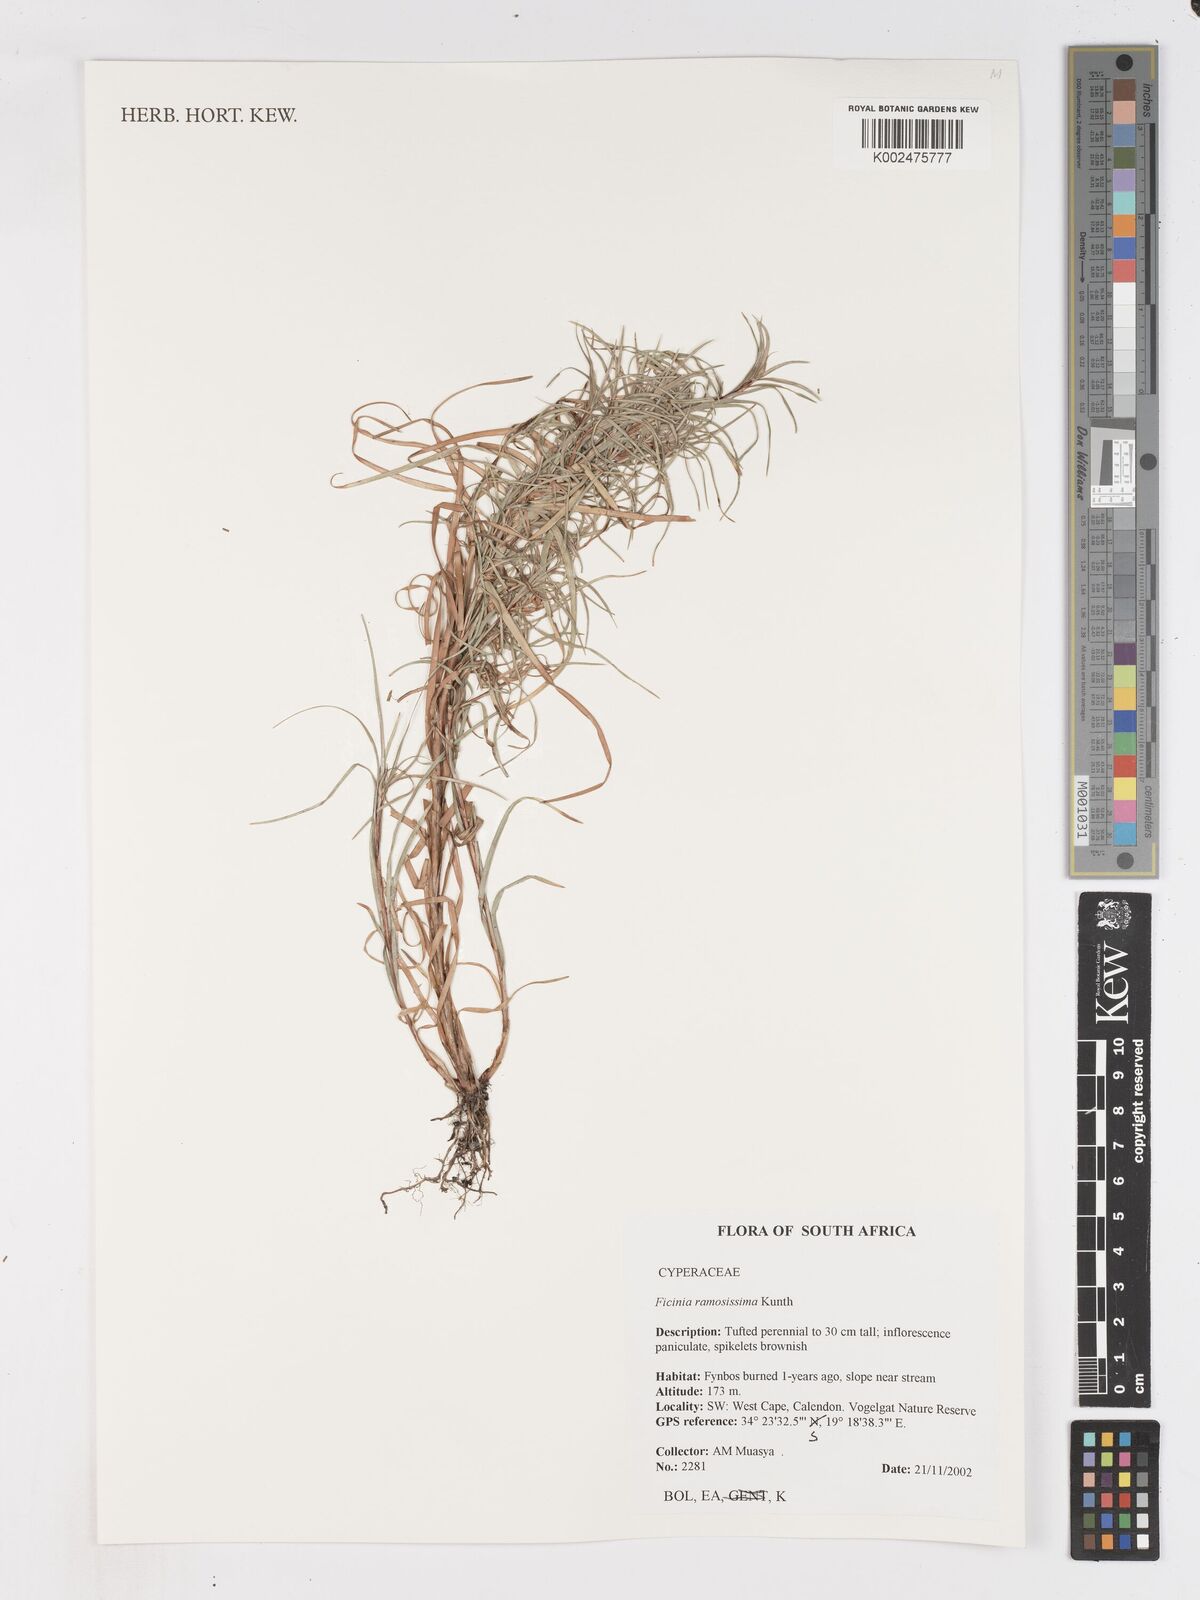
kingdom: Plantae
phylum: Tracheophyta
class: Liliopsida
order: Poales
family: Cyperaceae
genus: Ficinia
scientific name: Ficinia ramosissima
